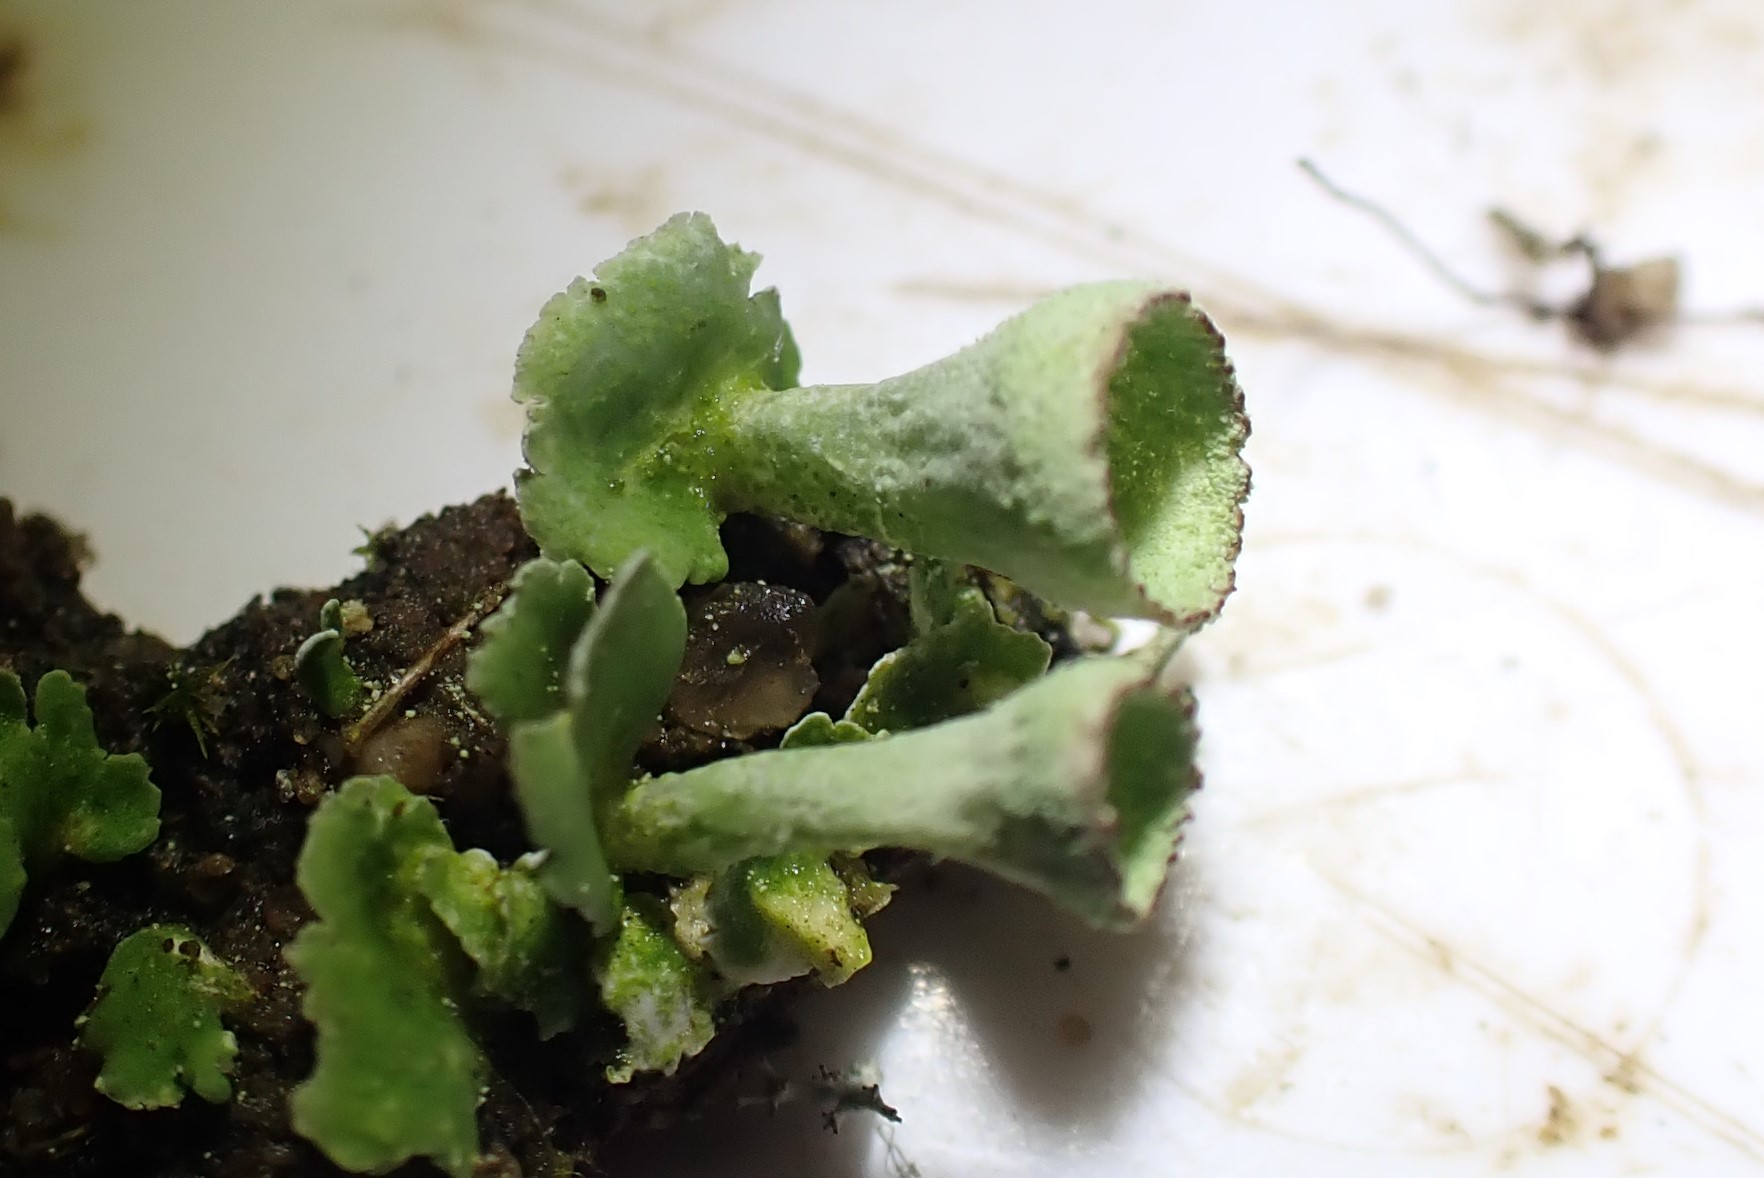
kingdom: Fungi
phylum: Ascomycota
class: Lecanoromycetes
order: Lecanorales
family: Cladoniaceae
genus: Cladonia
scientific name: Cladonia humilis
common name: lav bægerlav
